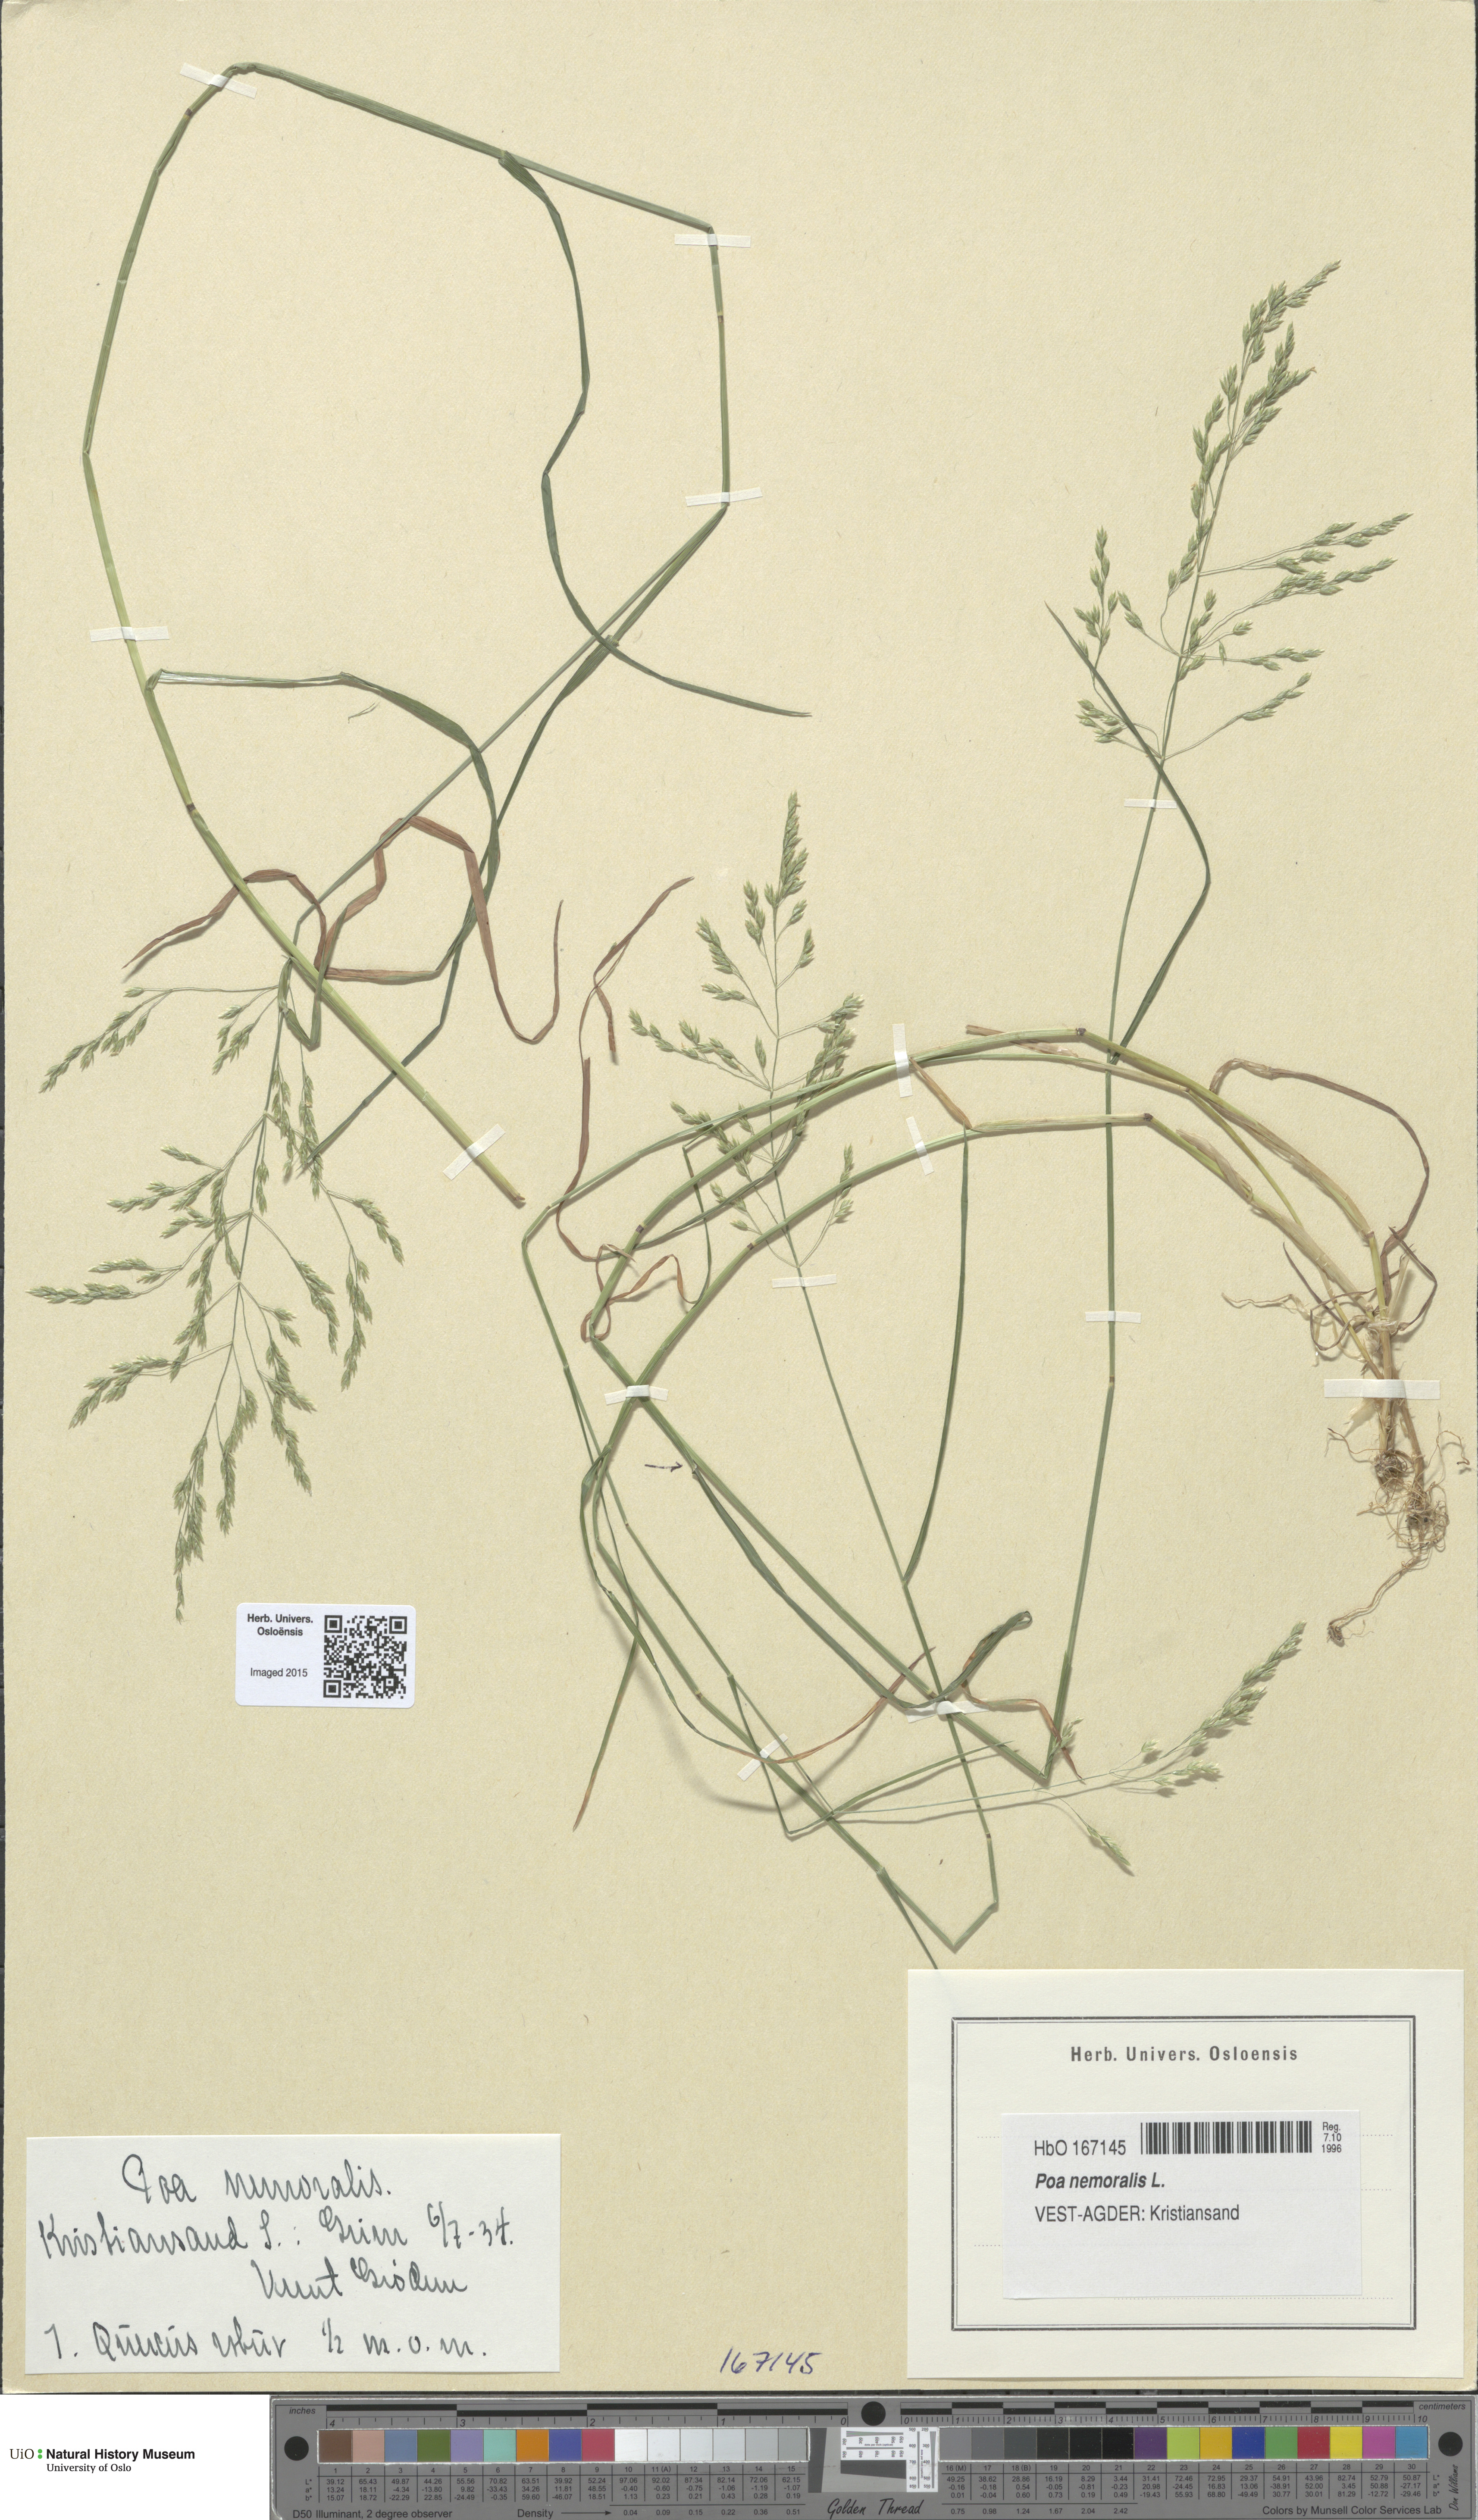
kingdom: Plantae
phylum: Tracheophyta
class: Liliopsida
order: Poales
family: Poaceae
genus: Poa
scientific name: Poa nemoralis
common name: Wood bluegrass
